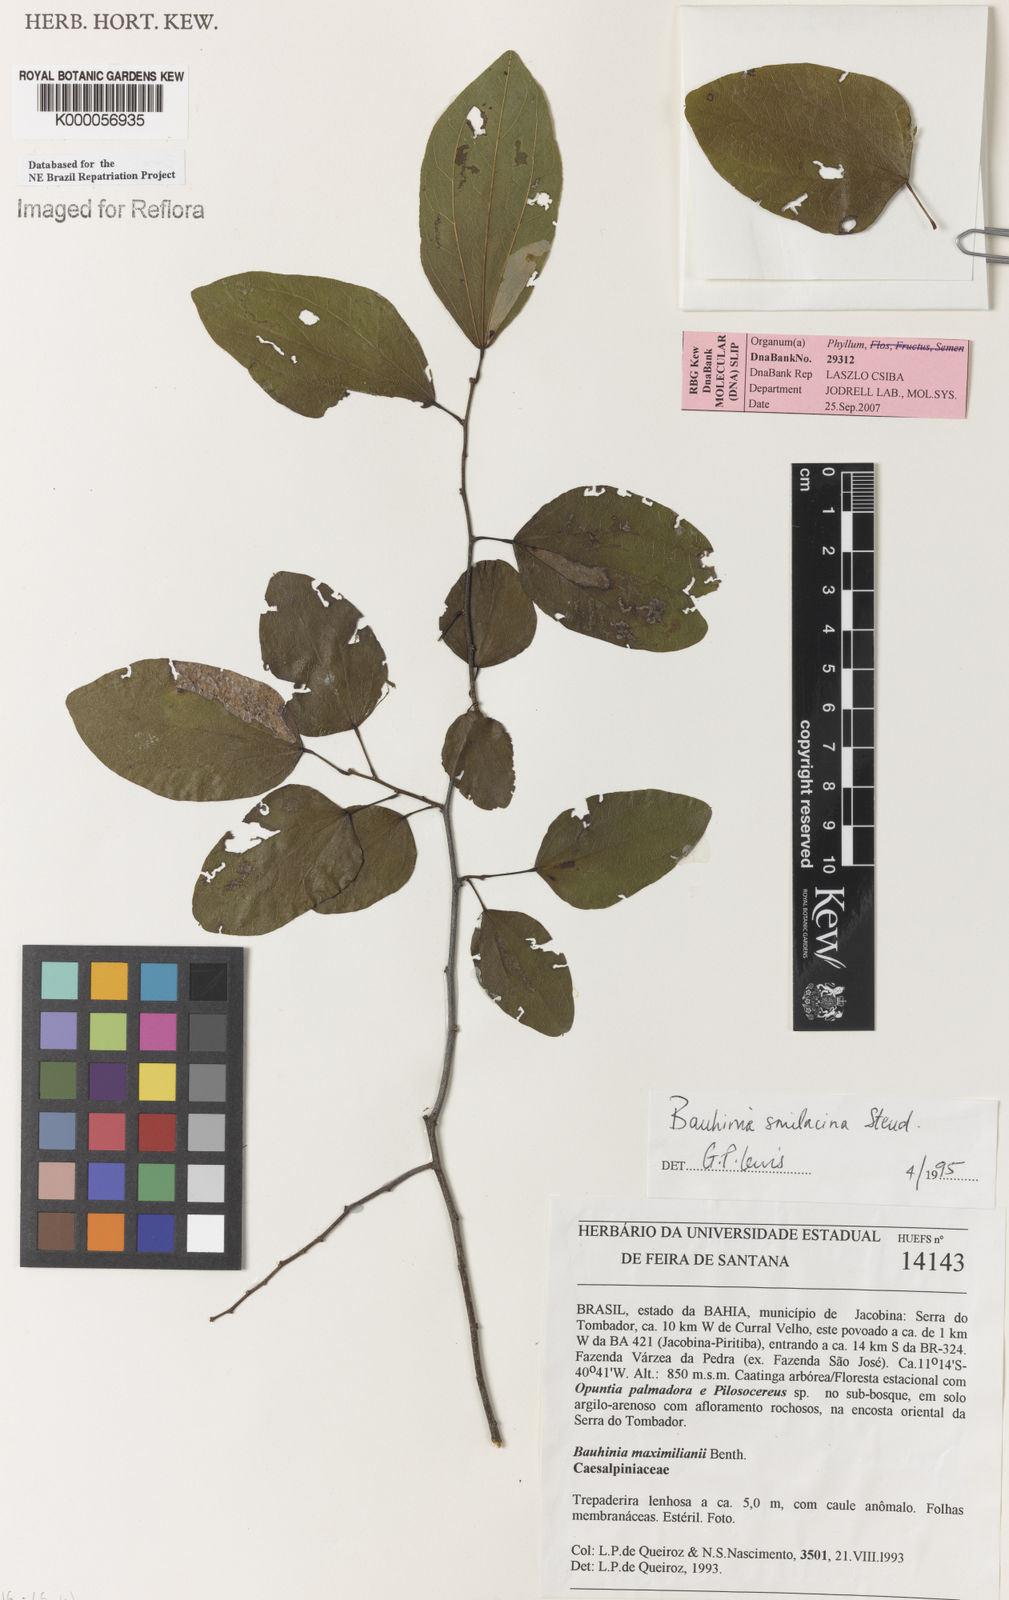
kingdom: Plantae
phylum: Tracheophyta
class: Magnoliopsida
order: Fabales
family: Fabaceae
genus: Schnella
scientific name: Schnella smilacina
